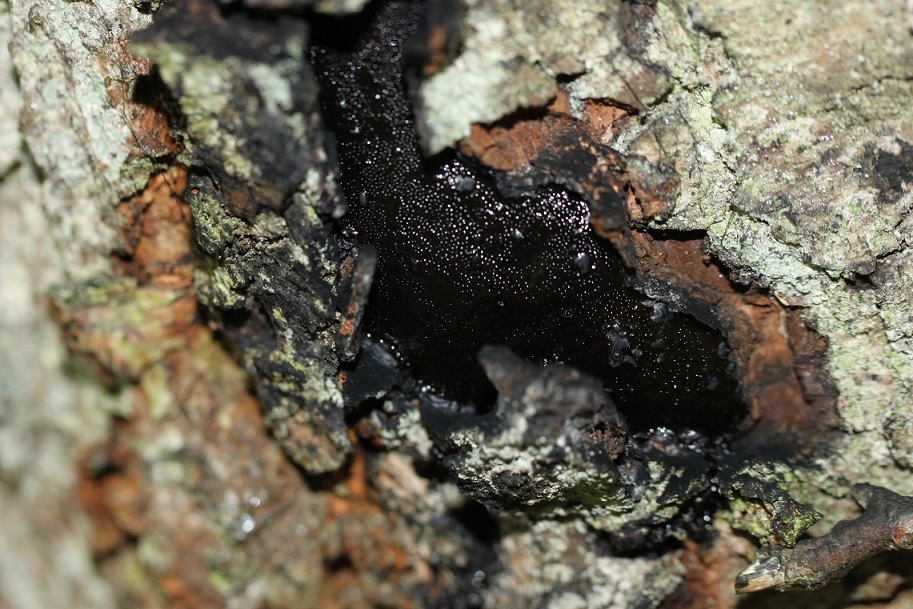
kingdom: Fungi
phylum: Ascomycota
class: Sordariomycetes
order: Boliniales
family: Boliniaceae
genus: Camarops
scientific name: Camarops polysperma
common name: elle-kulsnegl
